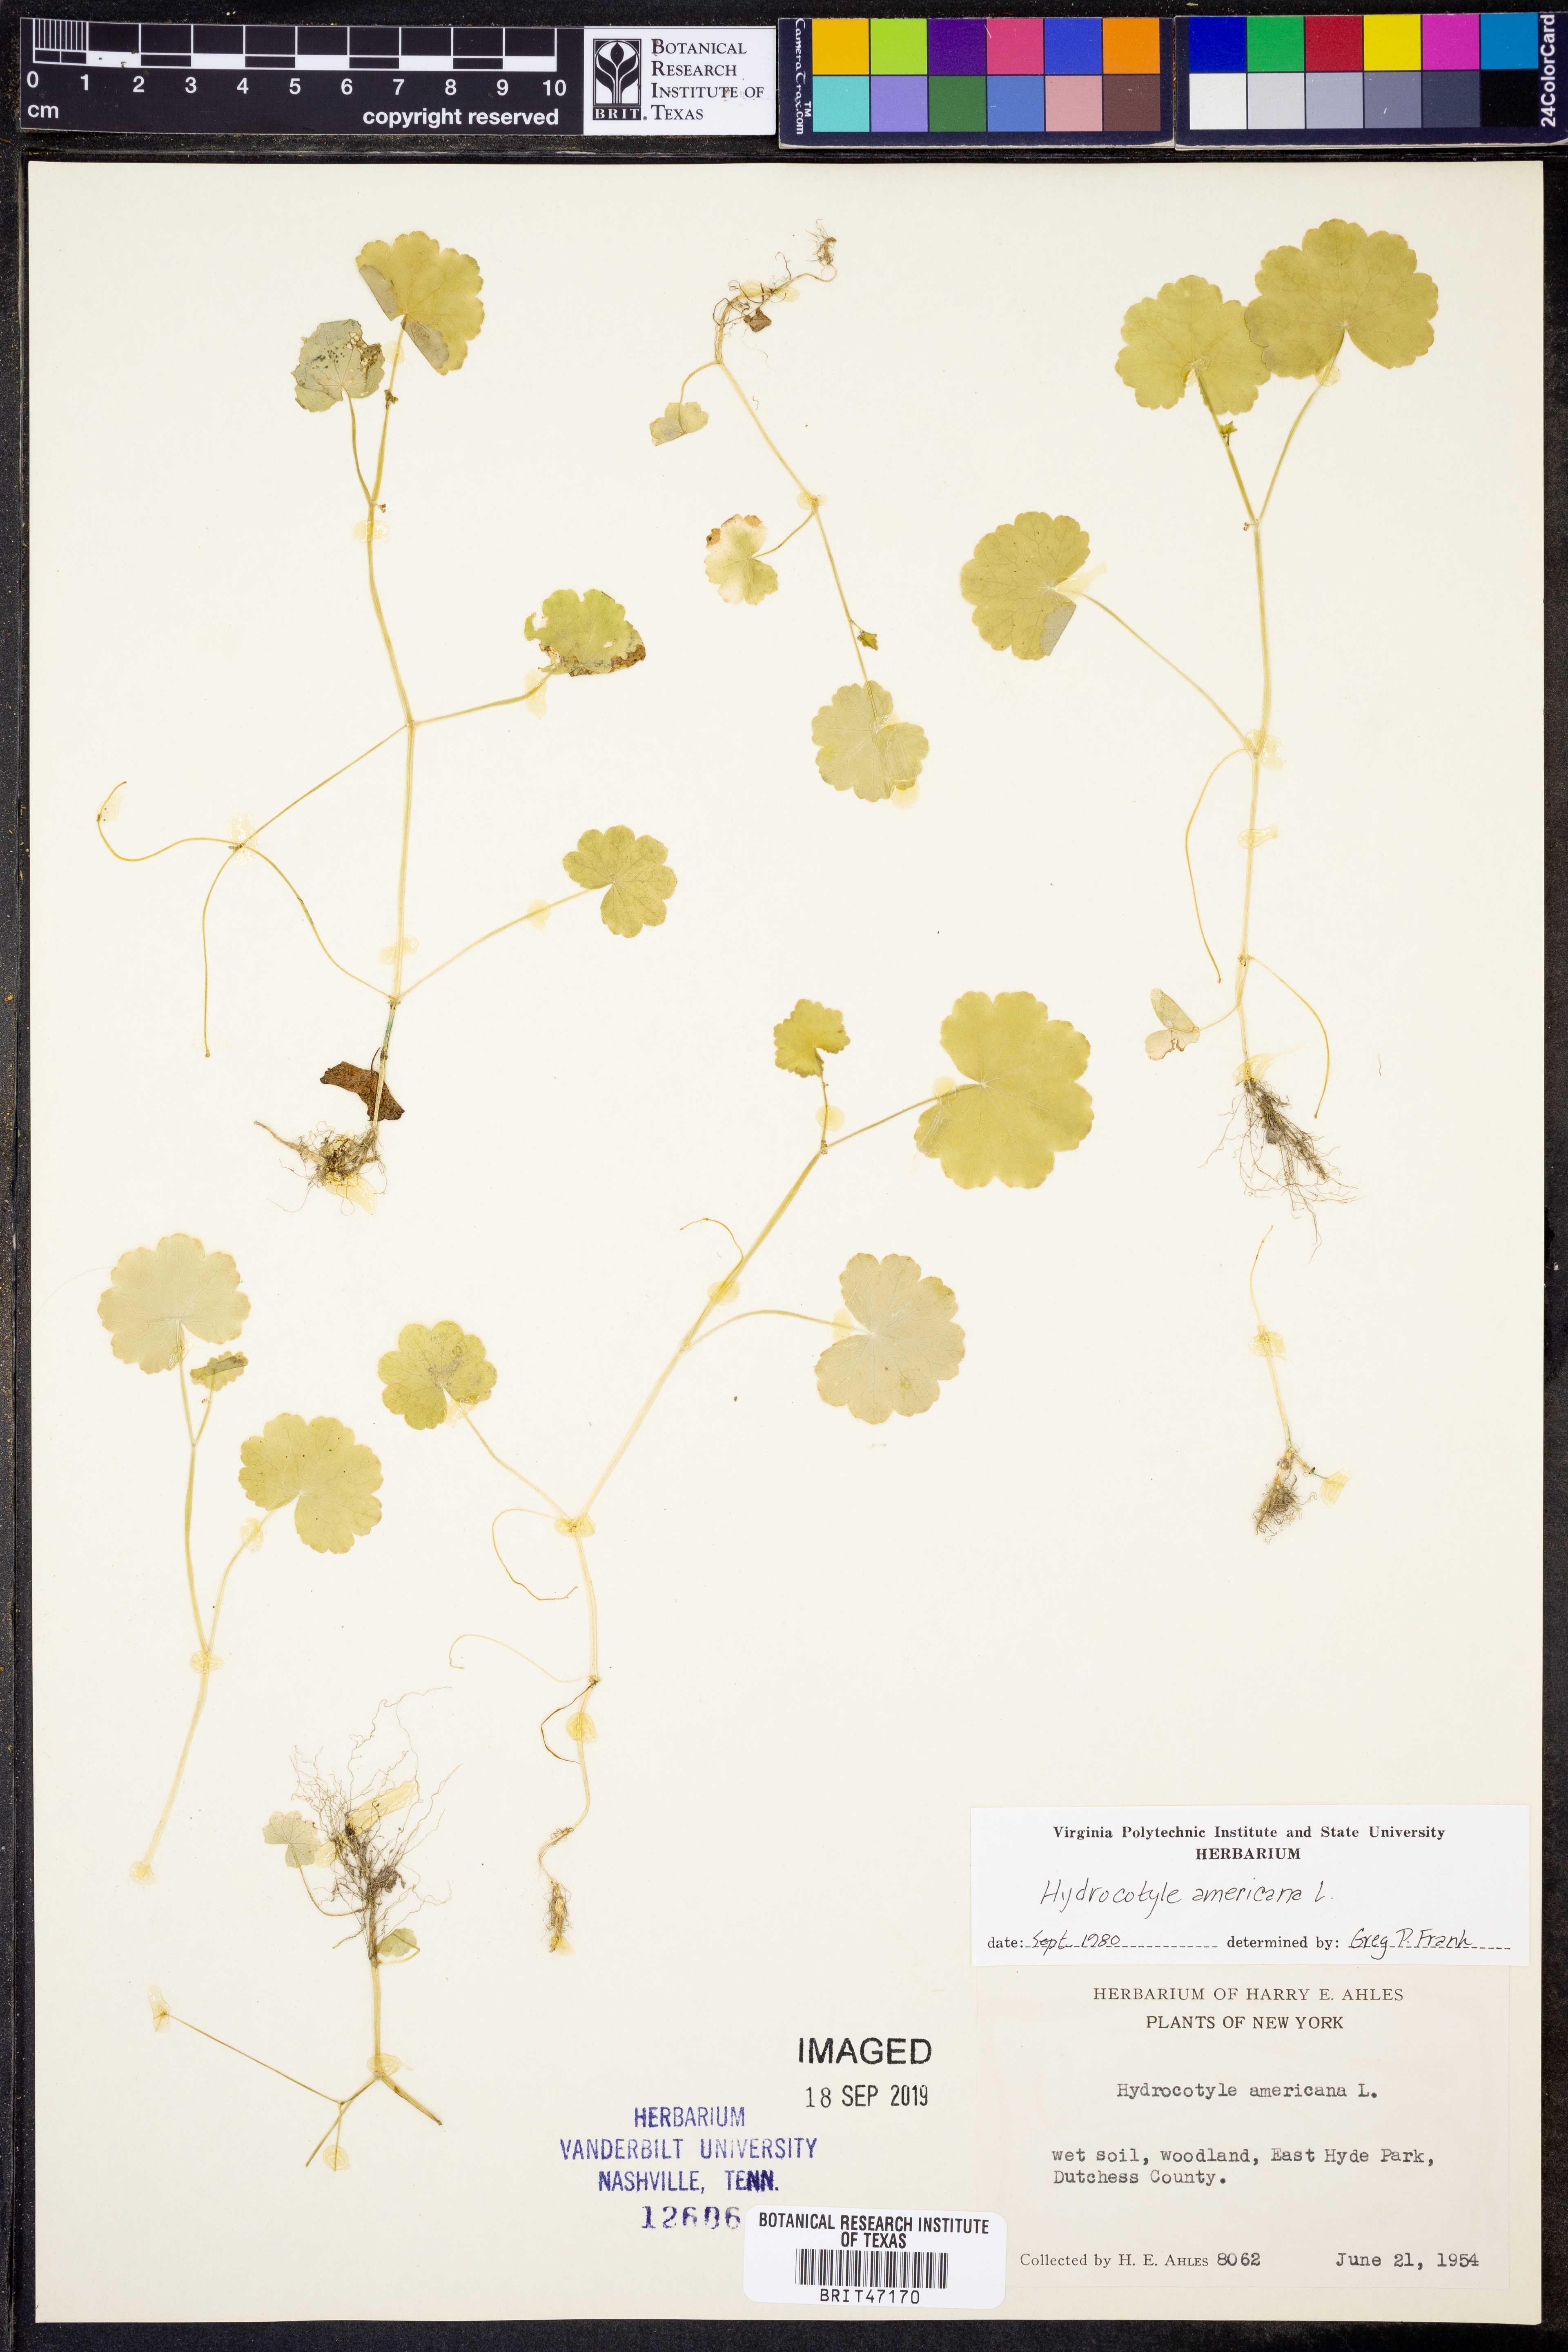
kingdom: Plantae
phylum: Tracheophyta
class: Magnoliopsida
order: Apiales
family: Araliaceae
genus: Hydrocotyle
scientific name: Hydrocotyle americana
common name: American water-pennywort
